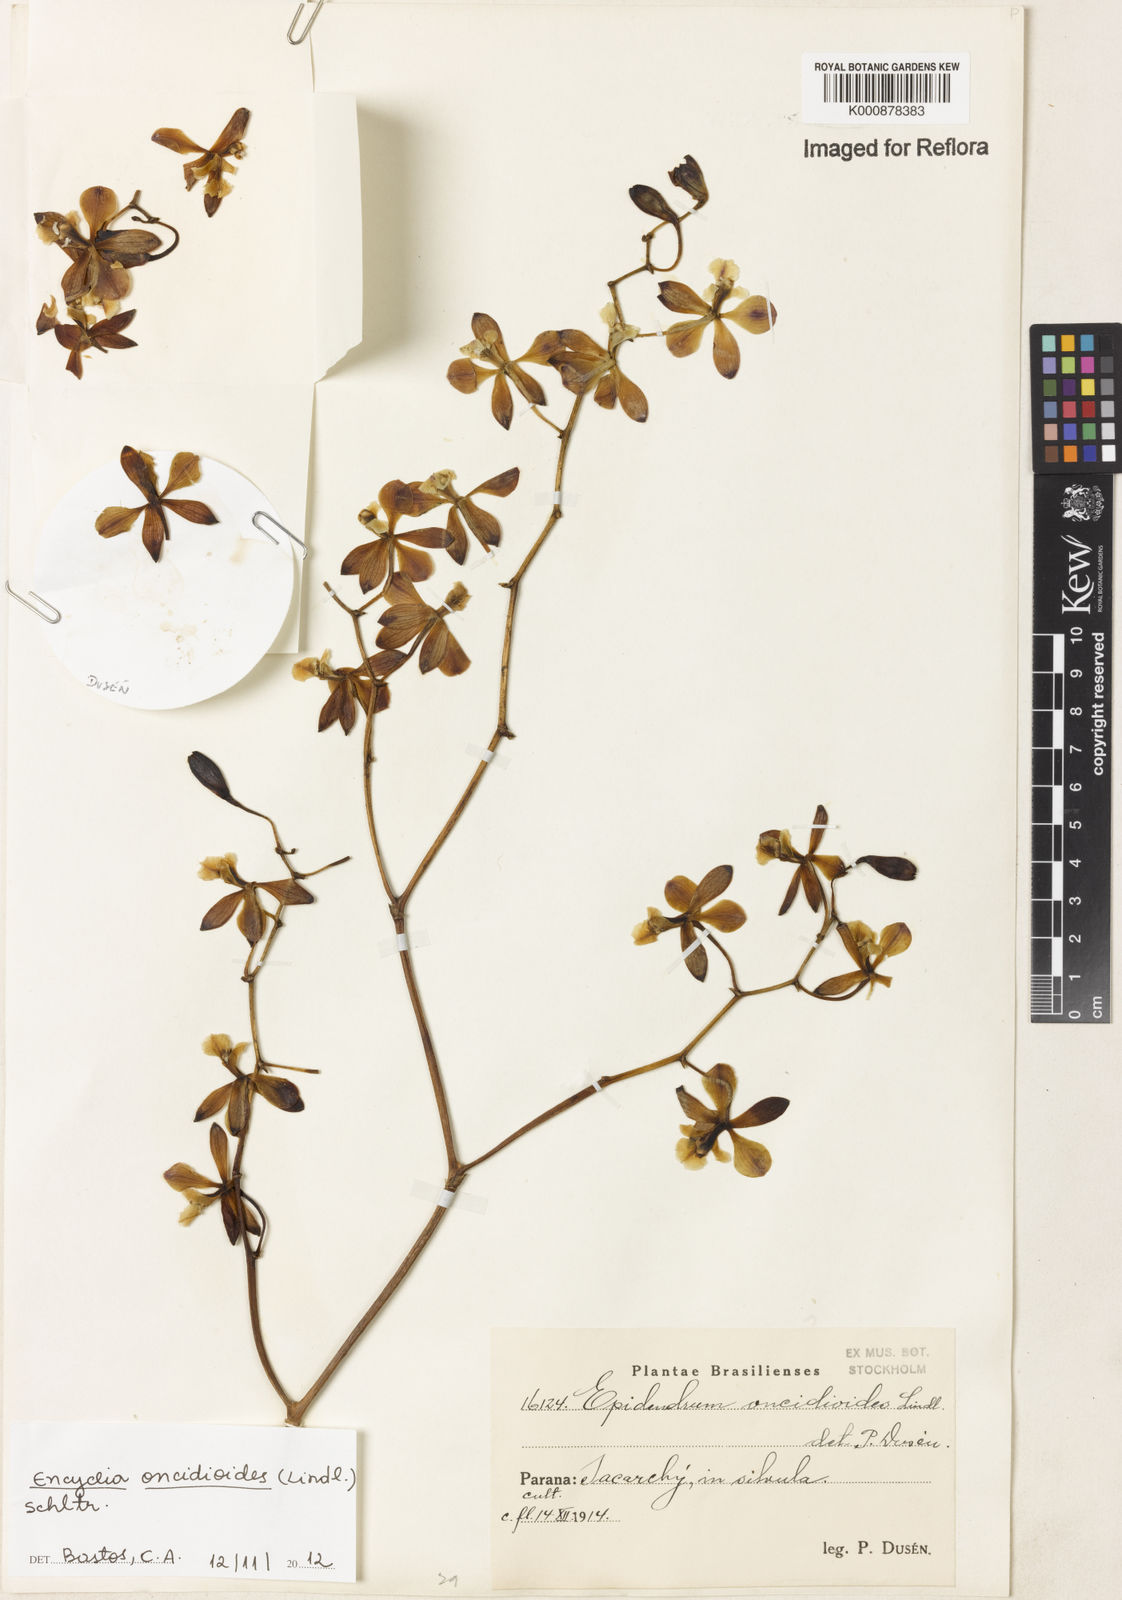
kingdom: Plantae
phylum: Tracheophyta
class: Liliopsida
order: Asparagales
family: Orchidaceae
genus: Encyclia
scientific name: Encyclia oncidioides
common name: Heavyfruit butterfly orchid
